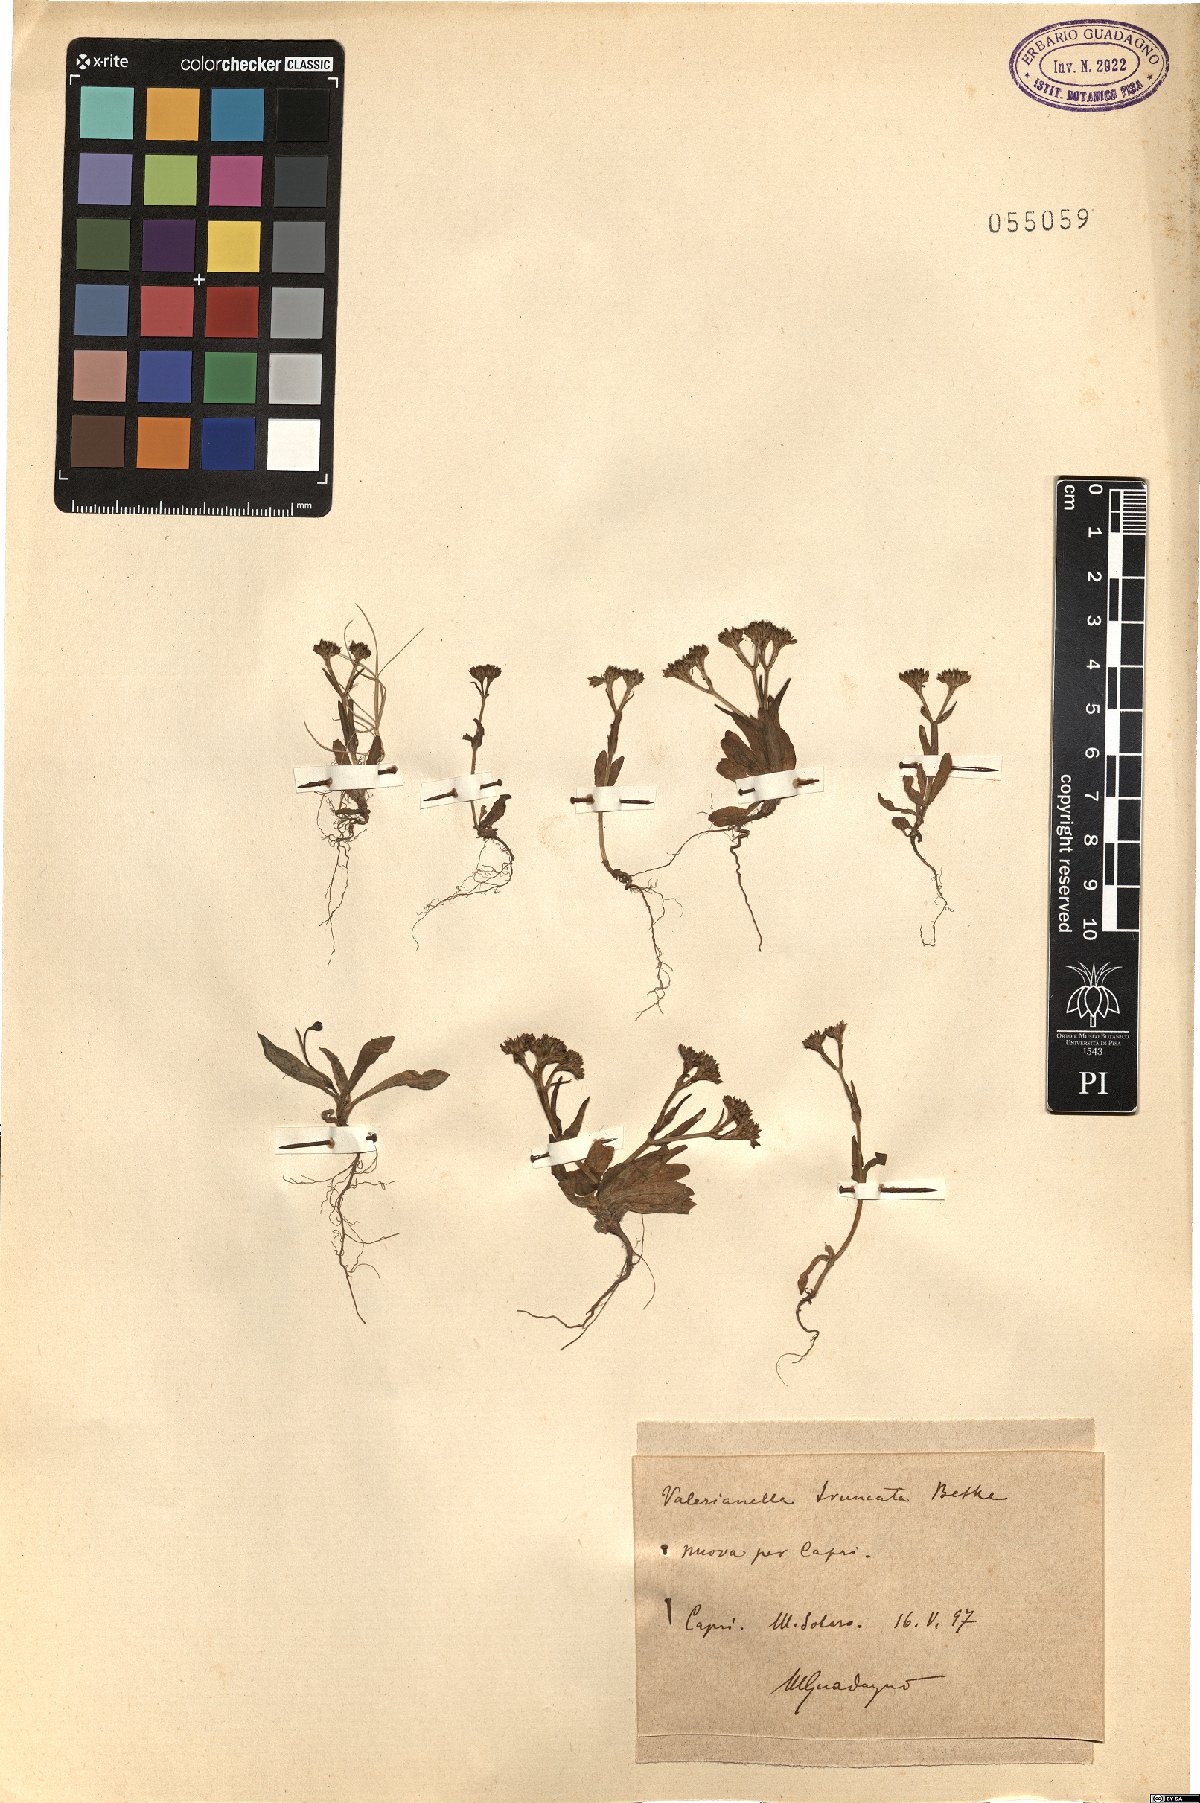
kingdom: Plantae
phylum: Tracheophyta
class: Magnoliopsida
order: Dipsacales
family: Caprifoliaceae
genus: Valerianella
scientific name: Valerianella eriocarpa
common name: Hairy-fruited cornsalad
